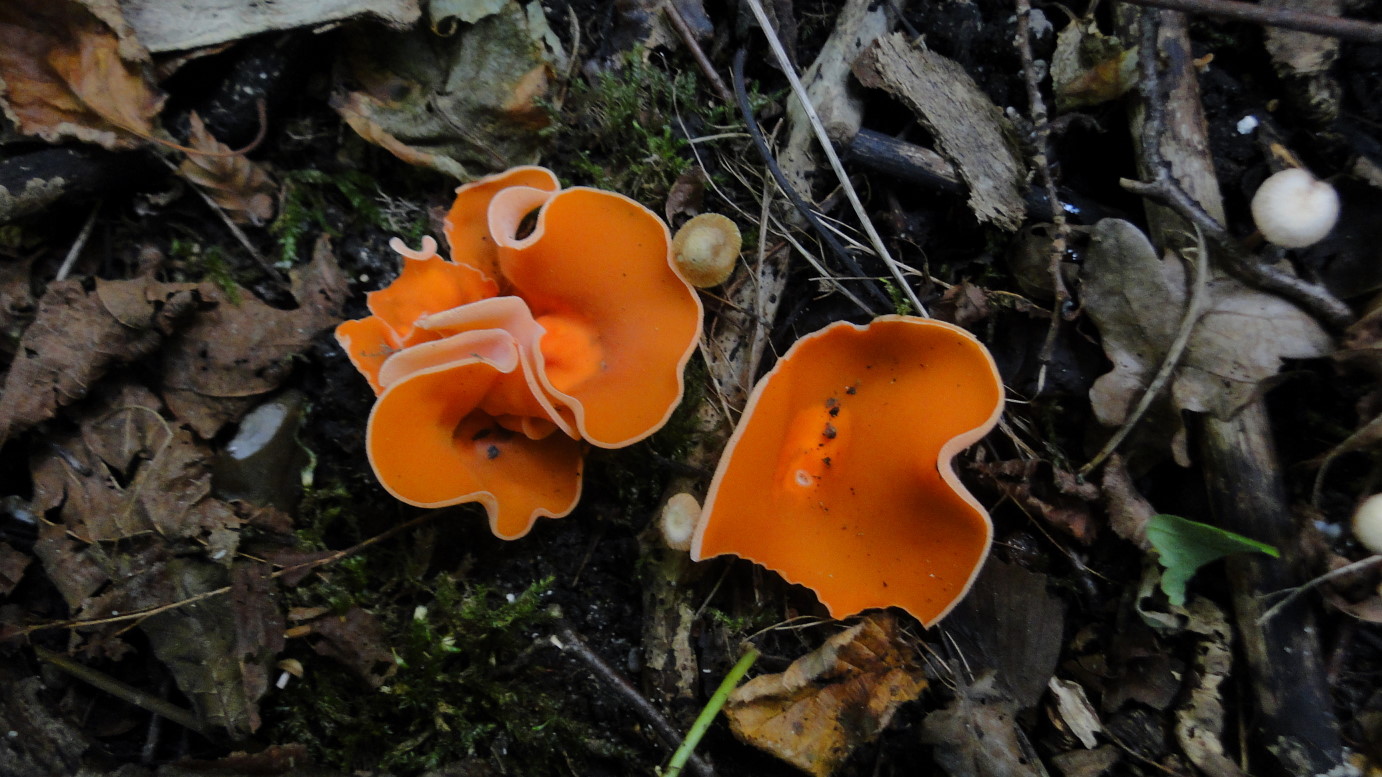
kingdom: Fungi
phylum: Ascomycota
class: Pezizomycetes
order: Pezizales
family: Pyronemataceae
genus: Aleuria
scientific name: Aleuria aurantia
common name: almindelig orangebæger
